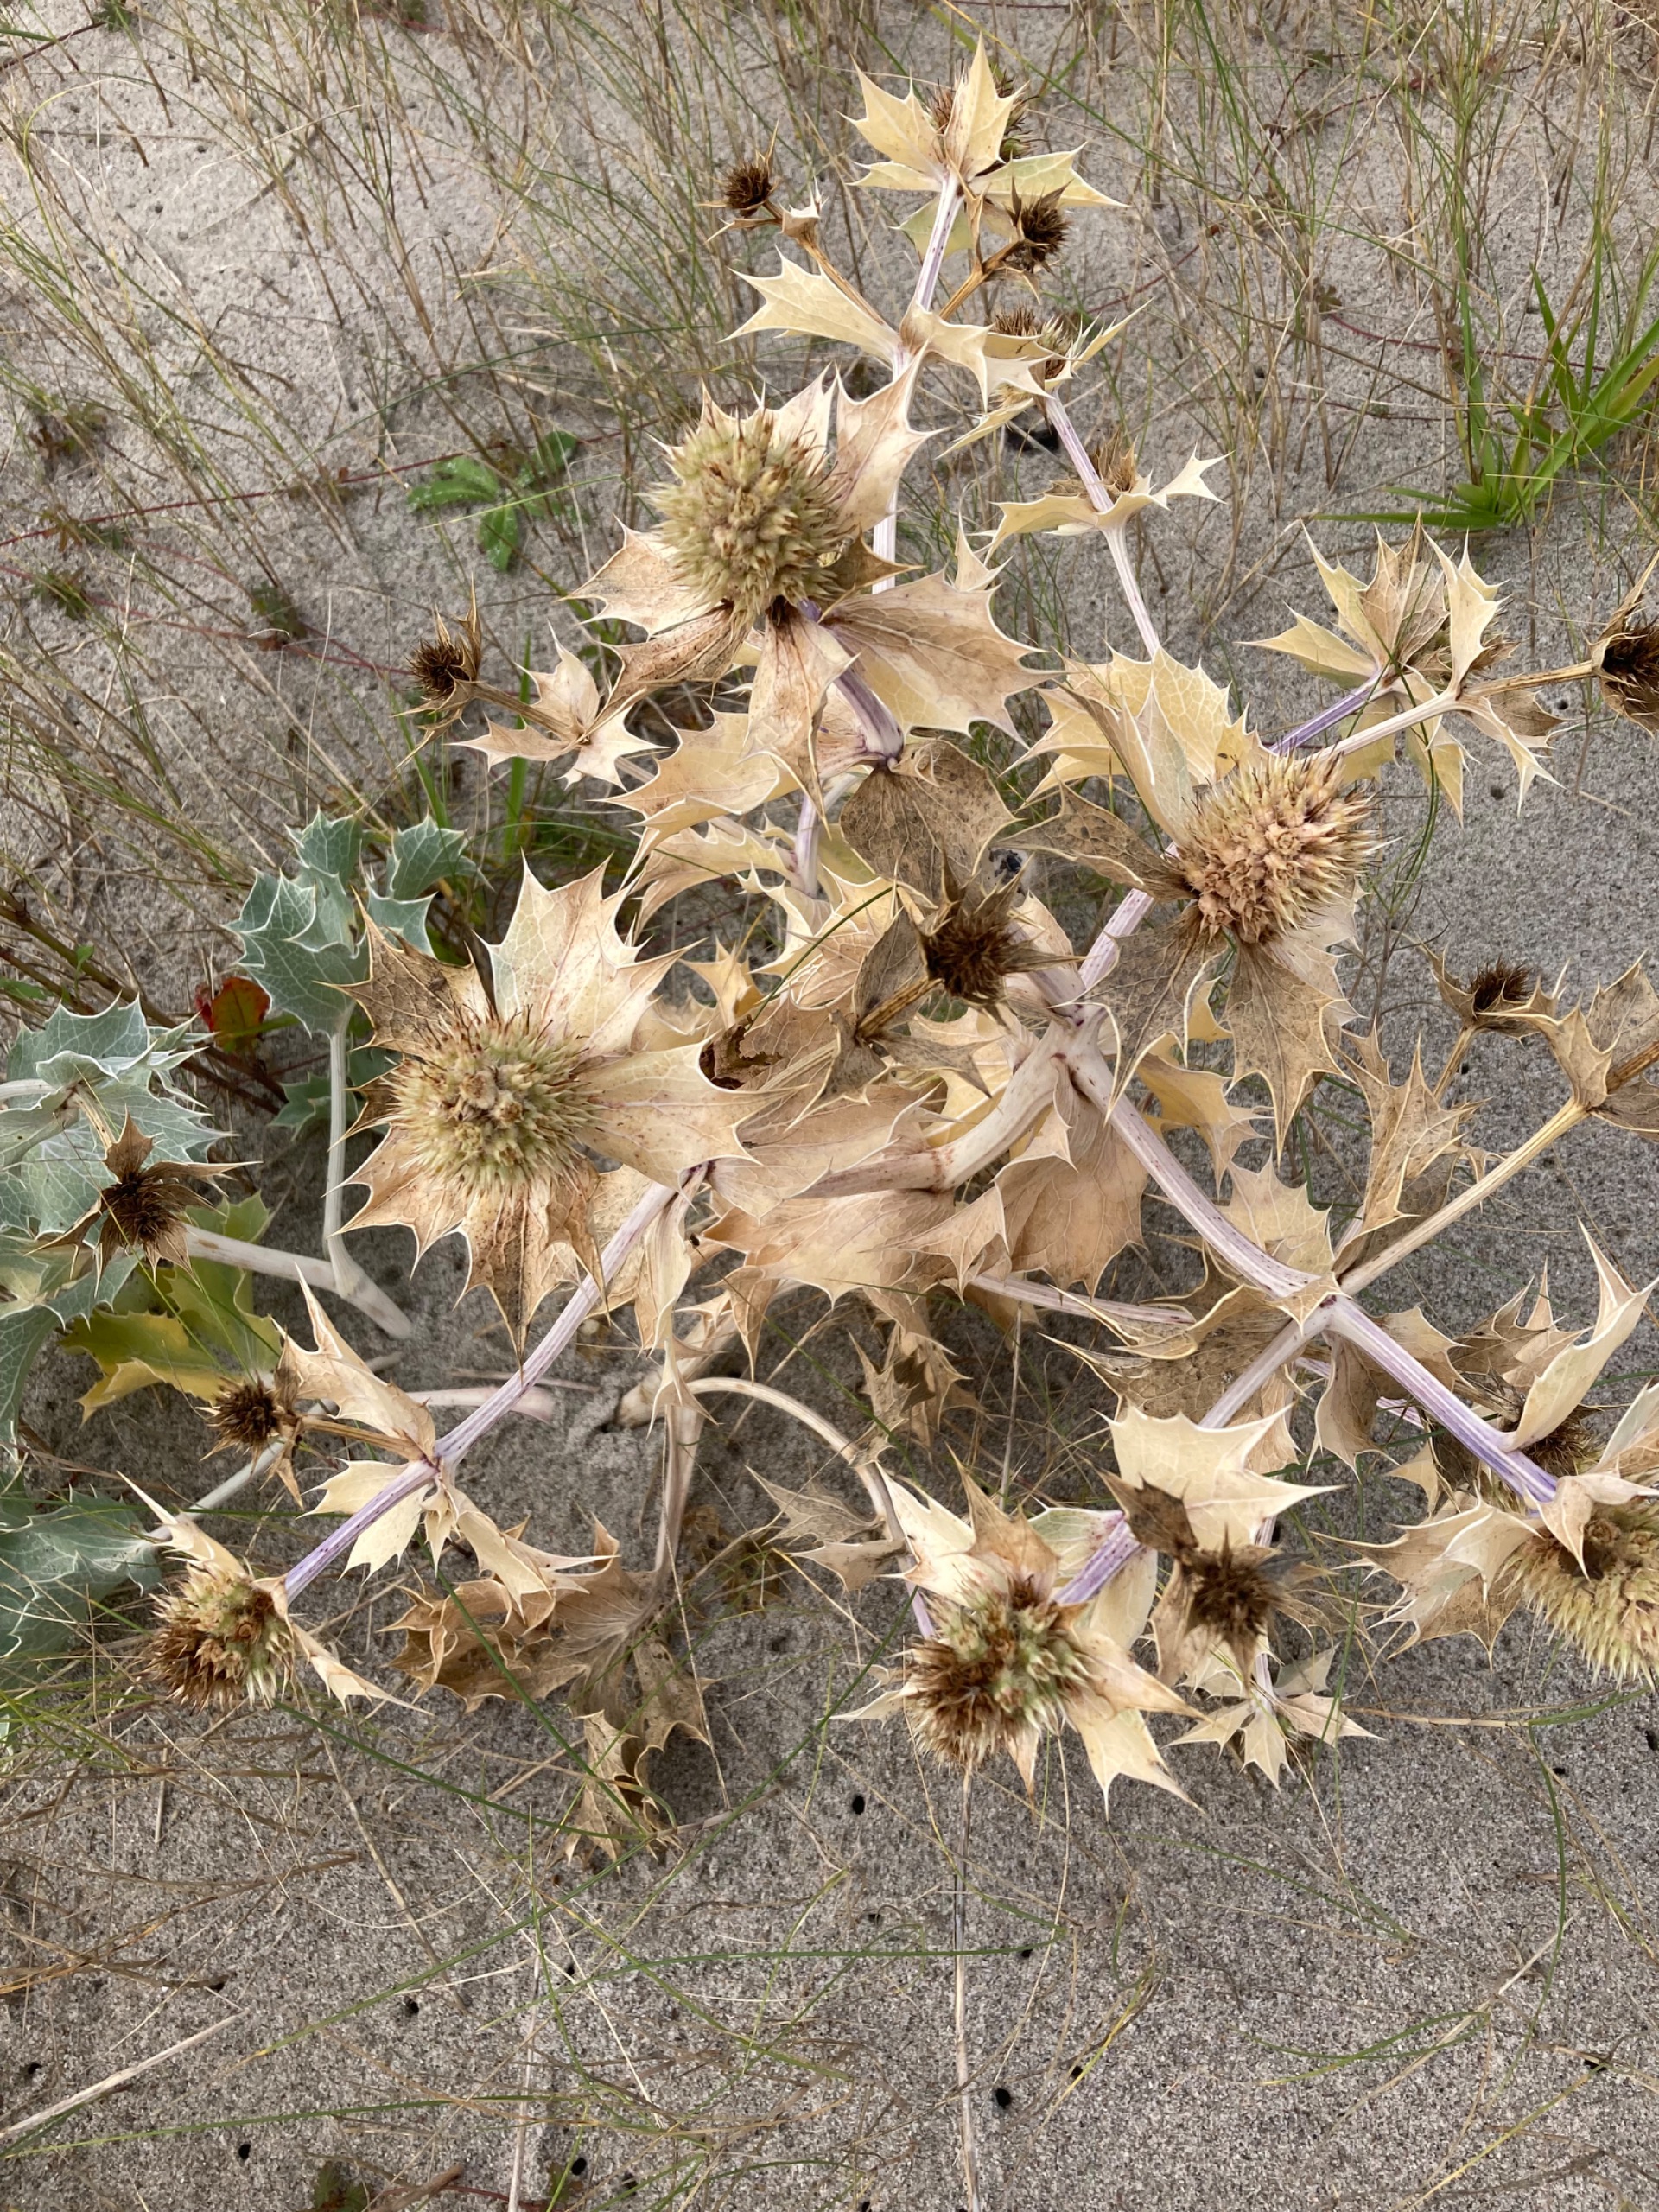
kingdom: Plantae
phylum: Tracheophyta
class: Magnoliopsida
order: Apiales
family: Apiaceae
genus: Eryngium
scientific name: Eryngium maritimum
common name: Strand-mandstro
